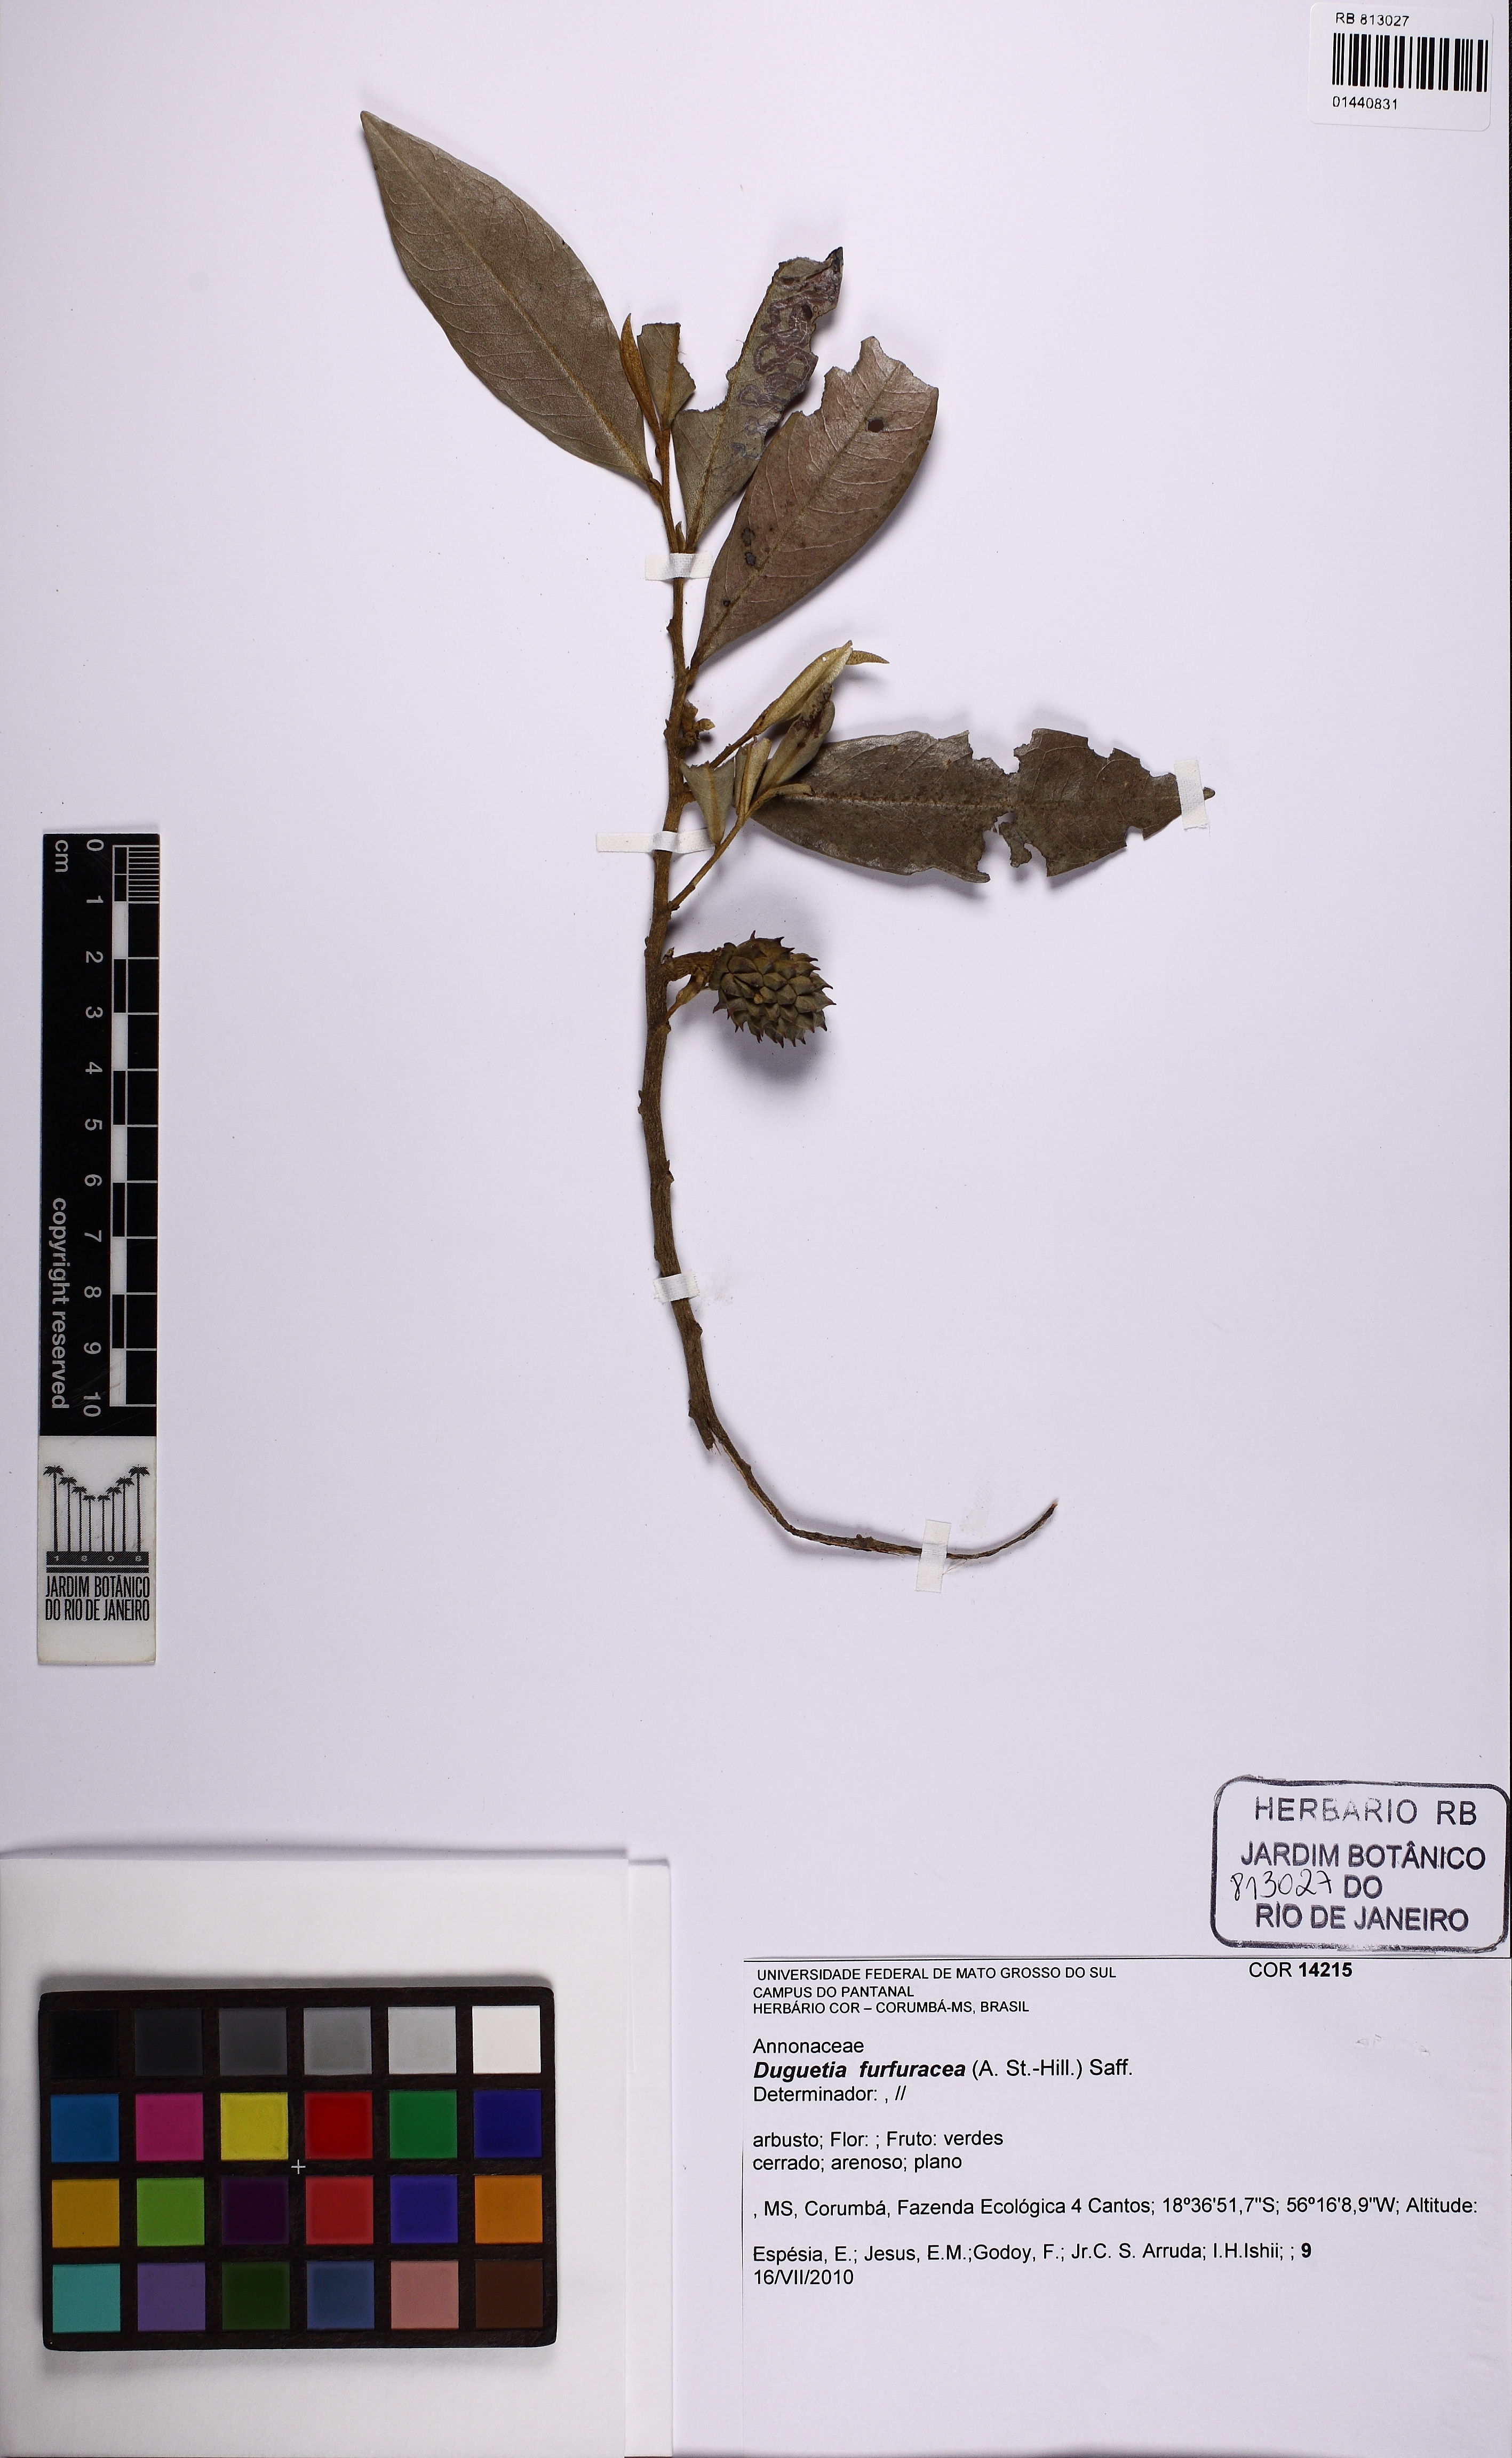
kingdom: Plantae
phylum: Tracheophyta
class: Magnoliopsida
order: Magnoliales
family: Annonaceae
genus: Duguetia
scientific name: Duguetia furfuracea
